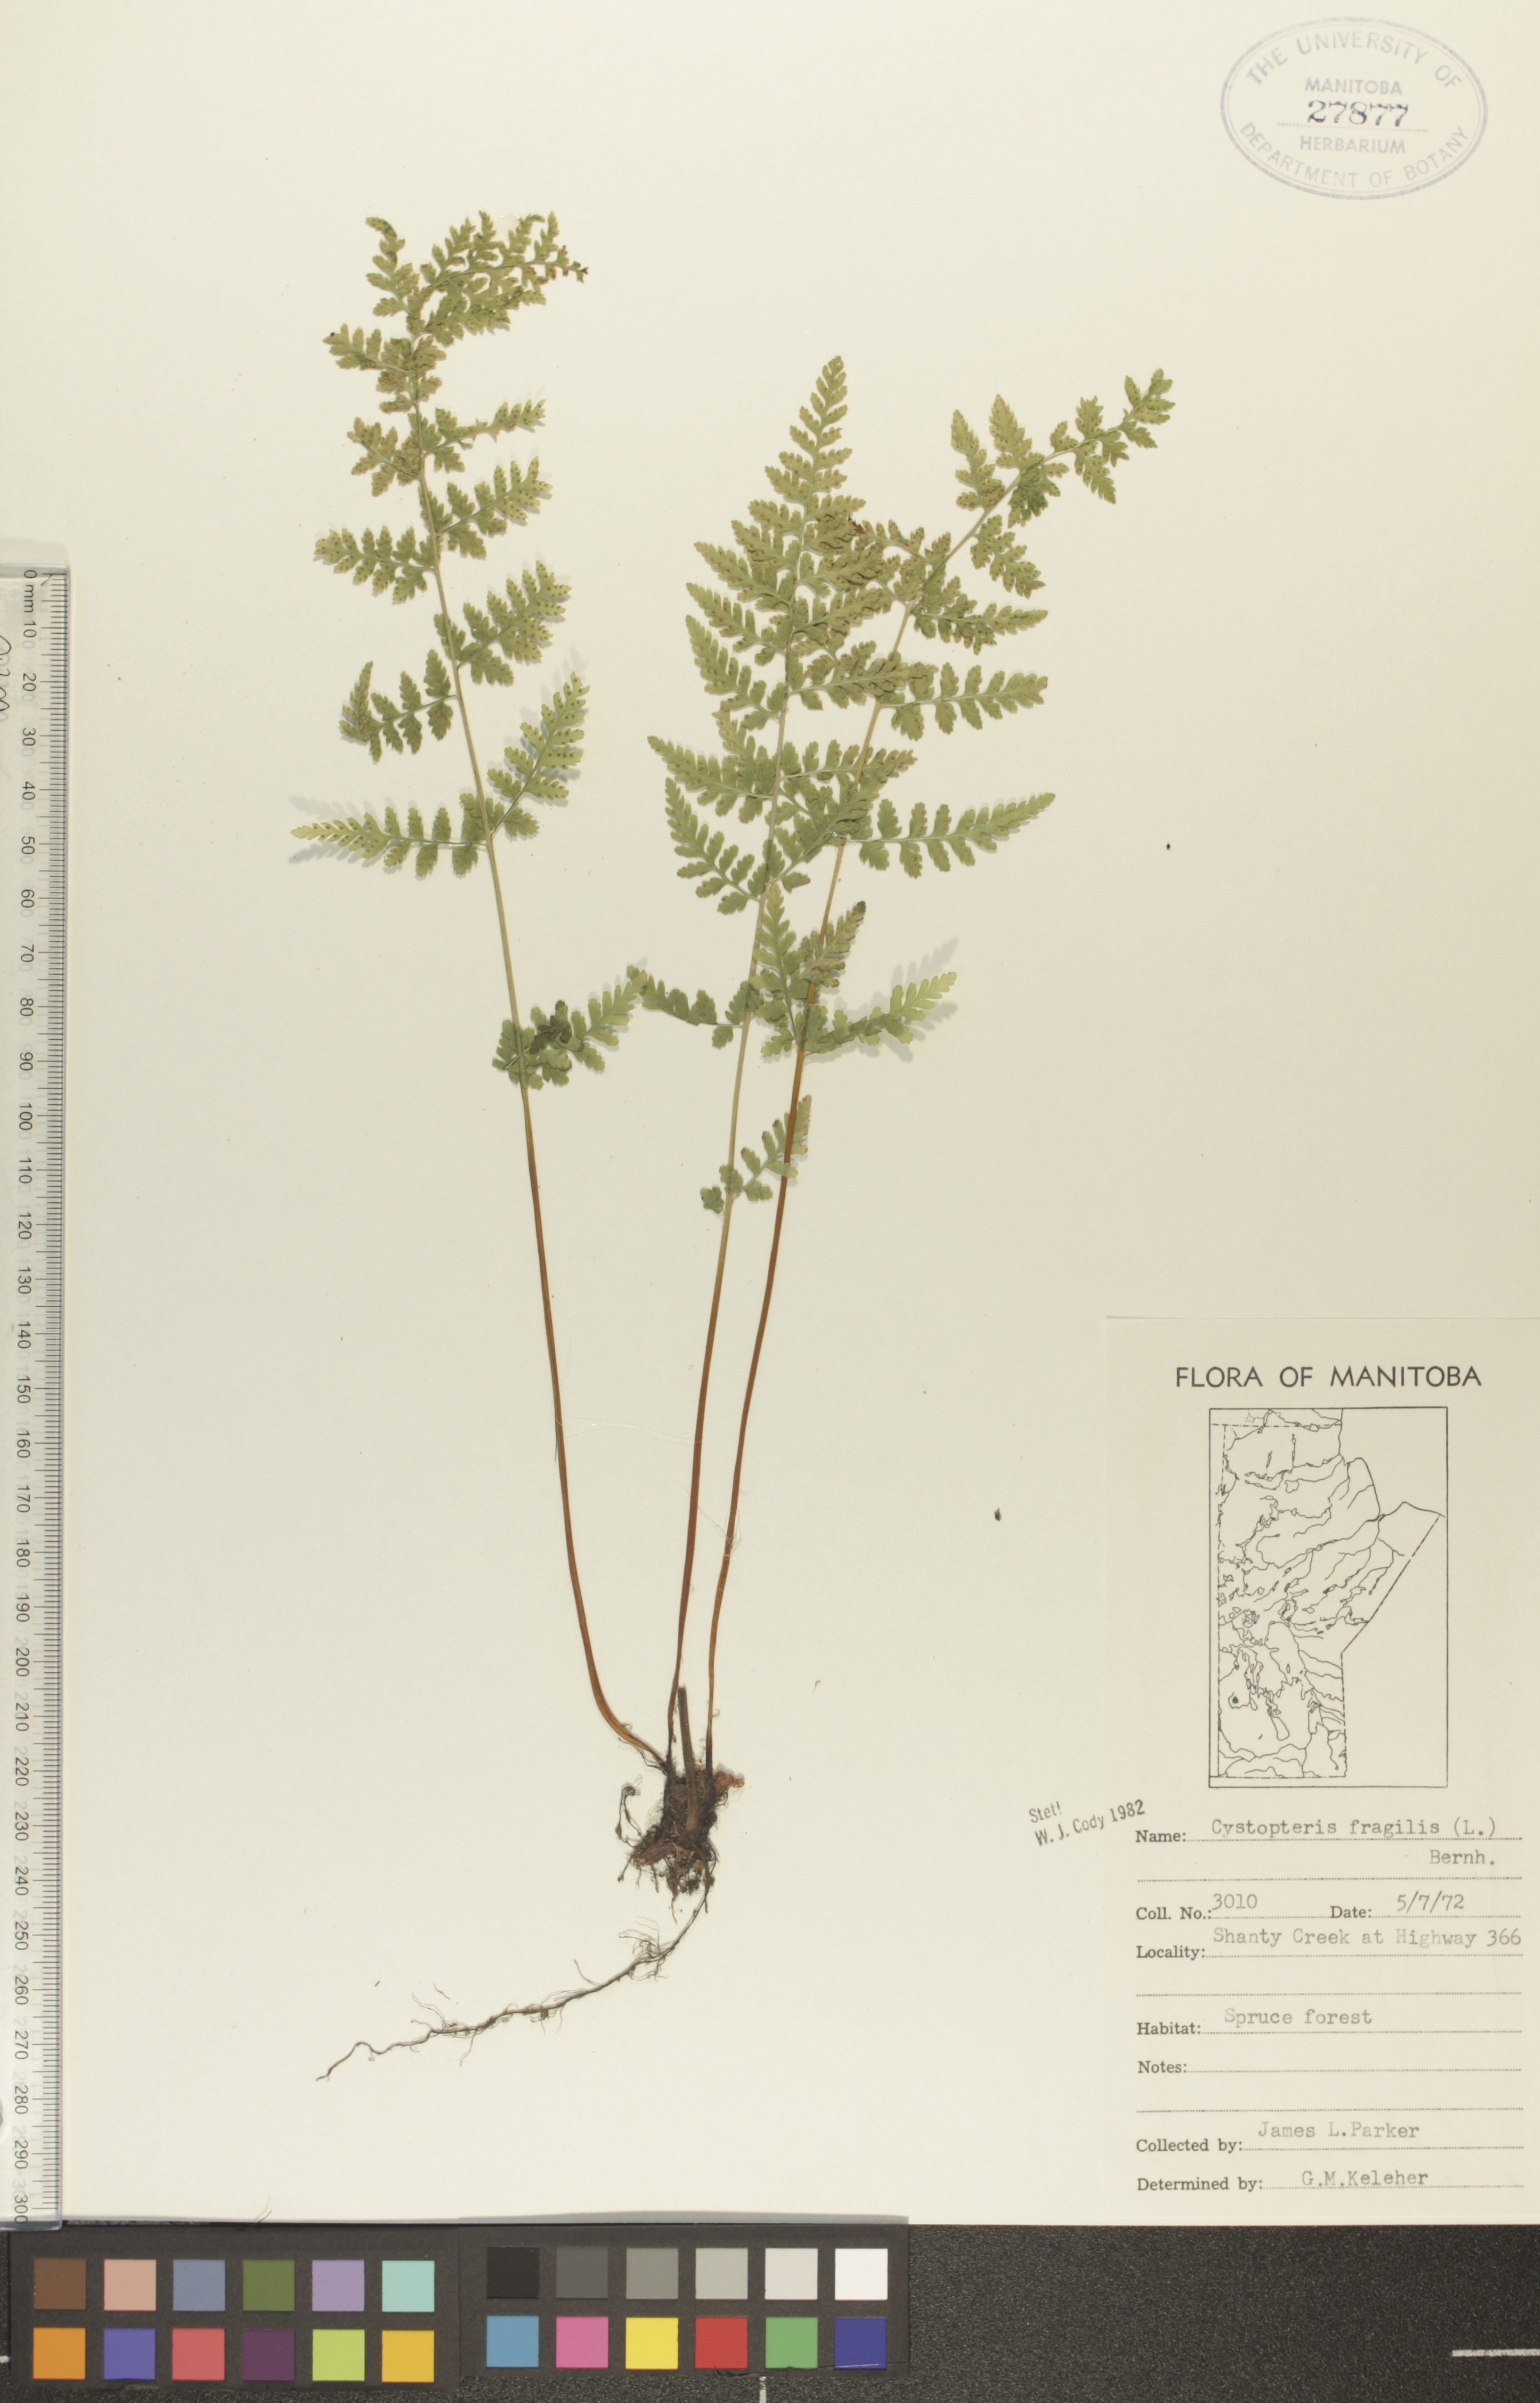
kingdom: Plantae
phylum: Tracheophyta
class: Polypodiopsida
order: Polypodiales
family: Cystopteridaceae
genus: Cystopteris
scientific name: Cystopteris fragilis
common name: Brittle bladder fern
